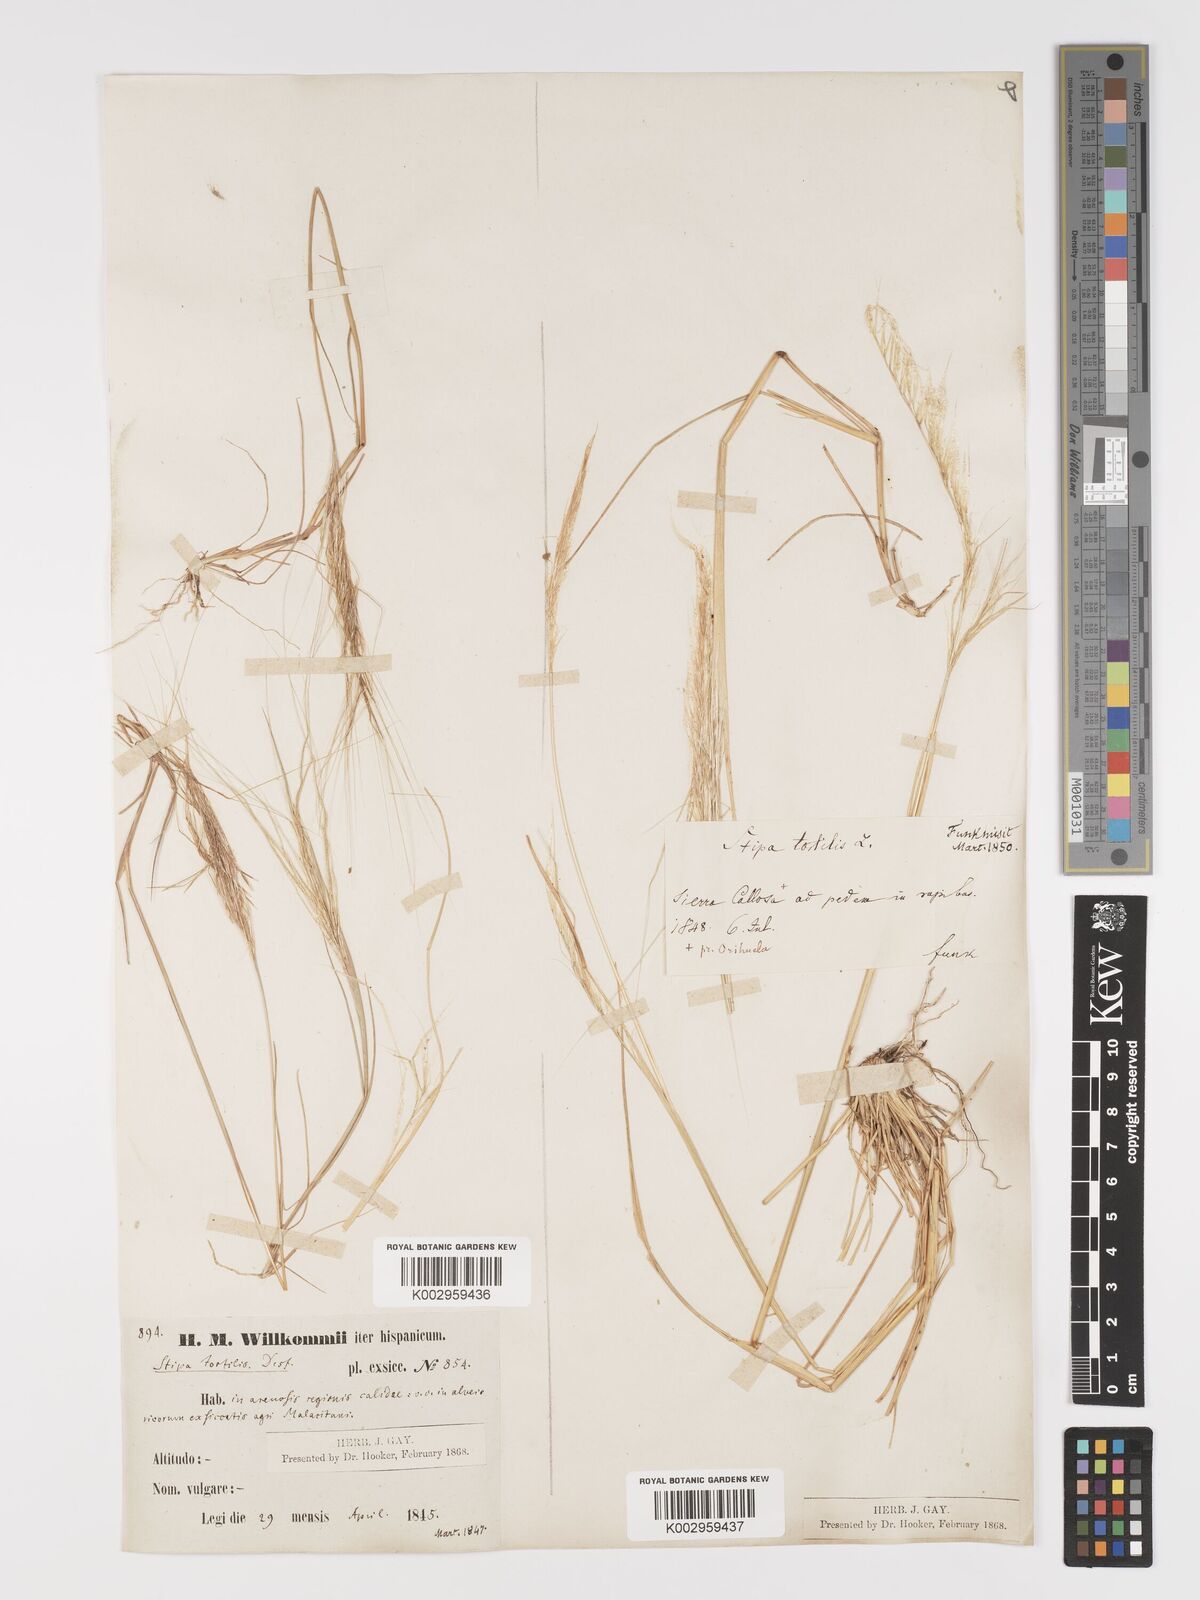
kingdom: Plantae
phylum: Tracheophyta
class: Liliopsida
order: Poales
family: Poaceae
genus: Stipa
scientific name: Stipa
